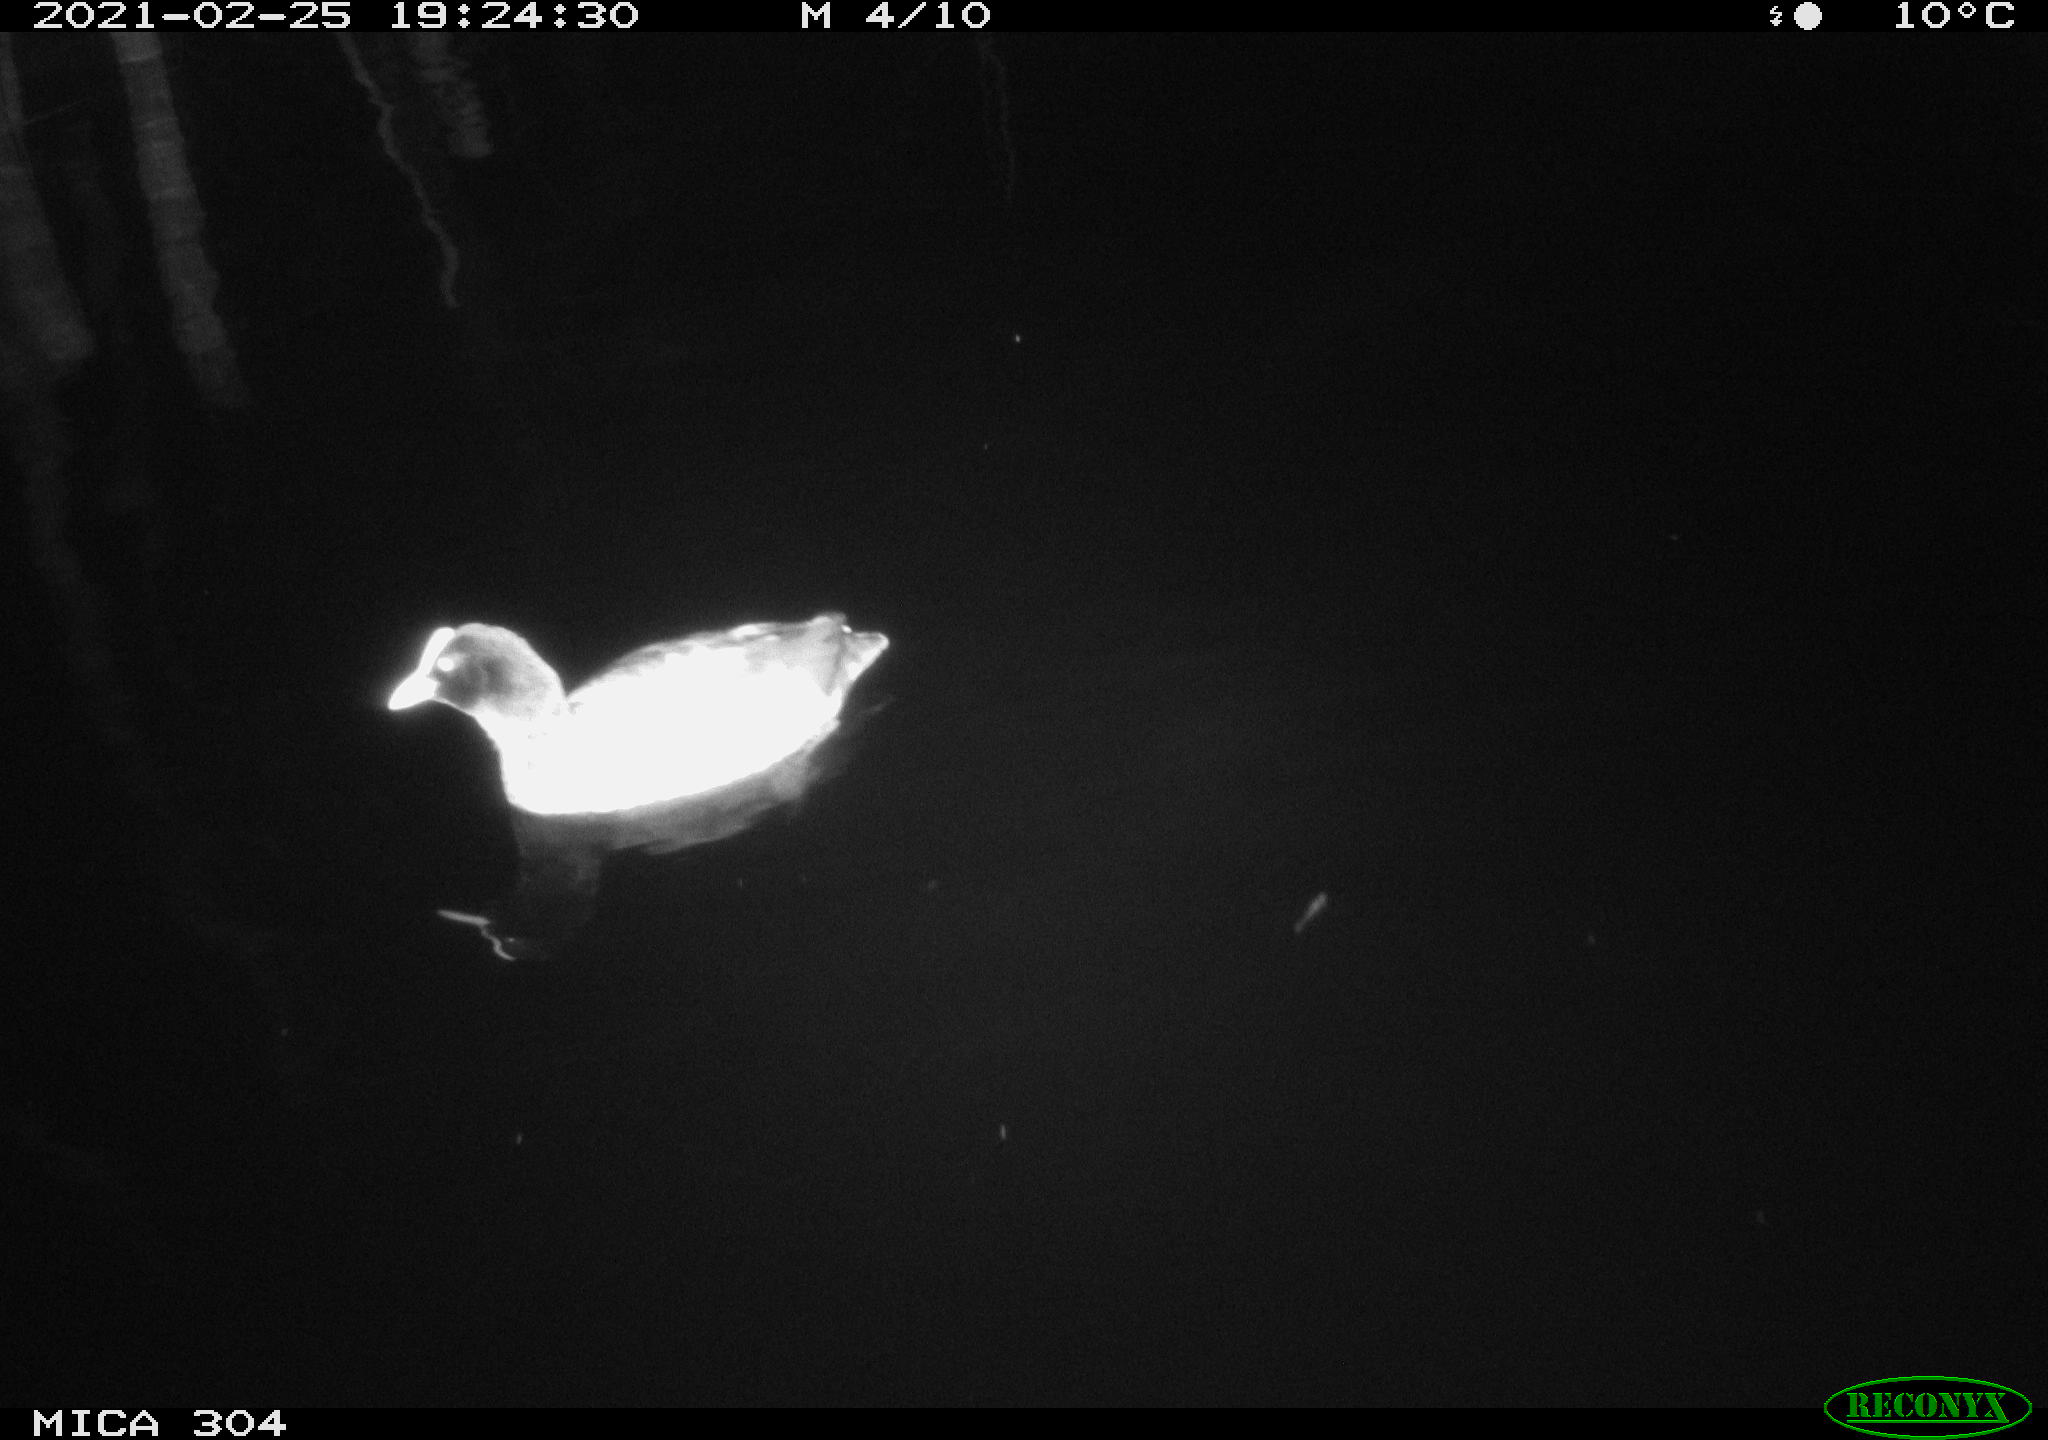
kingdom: Animalia
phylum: Chordata
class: Aves
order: Gruiformes
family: Rallidae
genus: Fulica
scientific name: Fulica atra
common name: Eurasian coot
